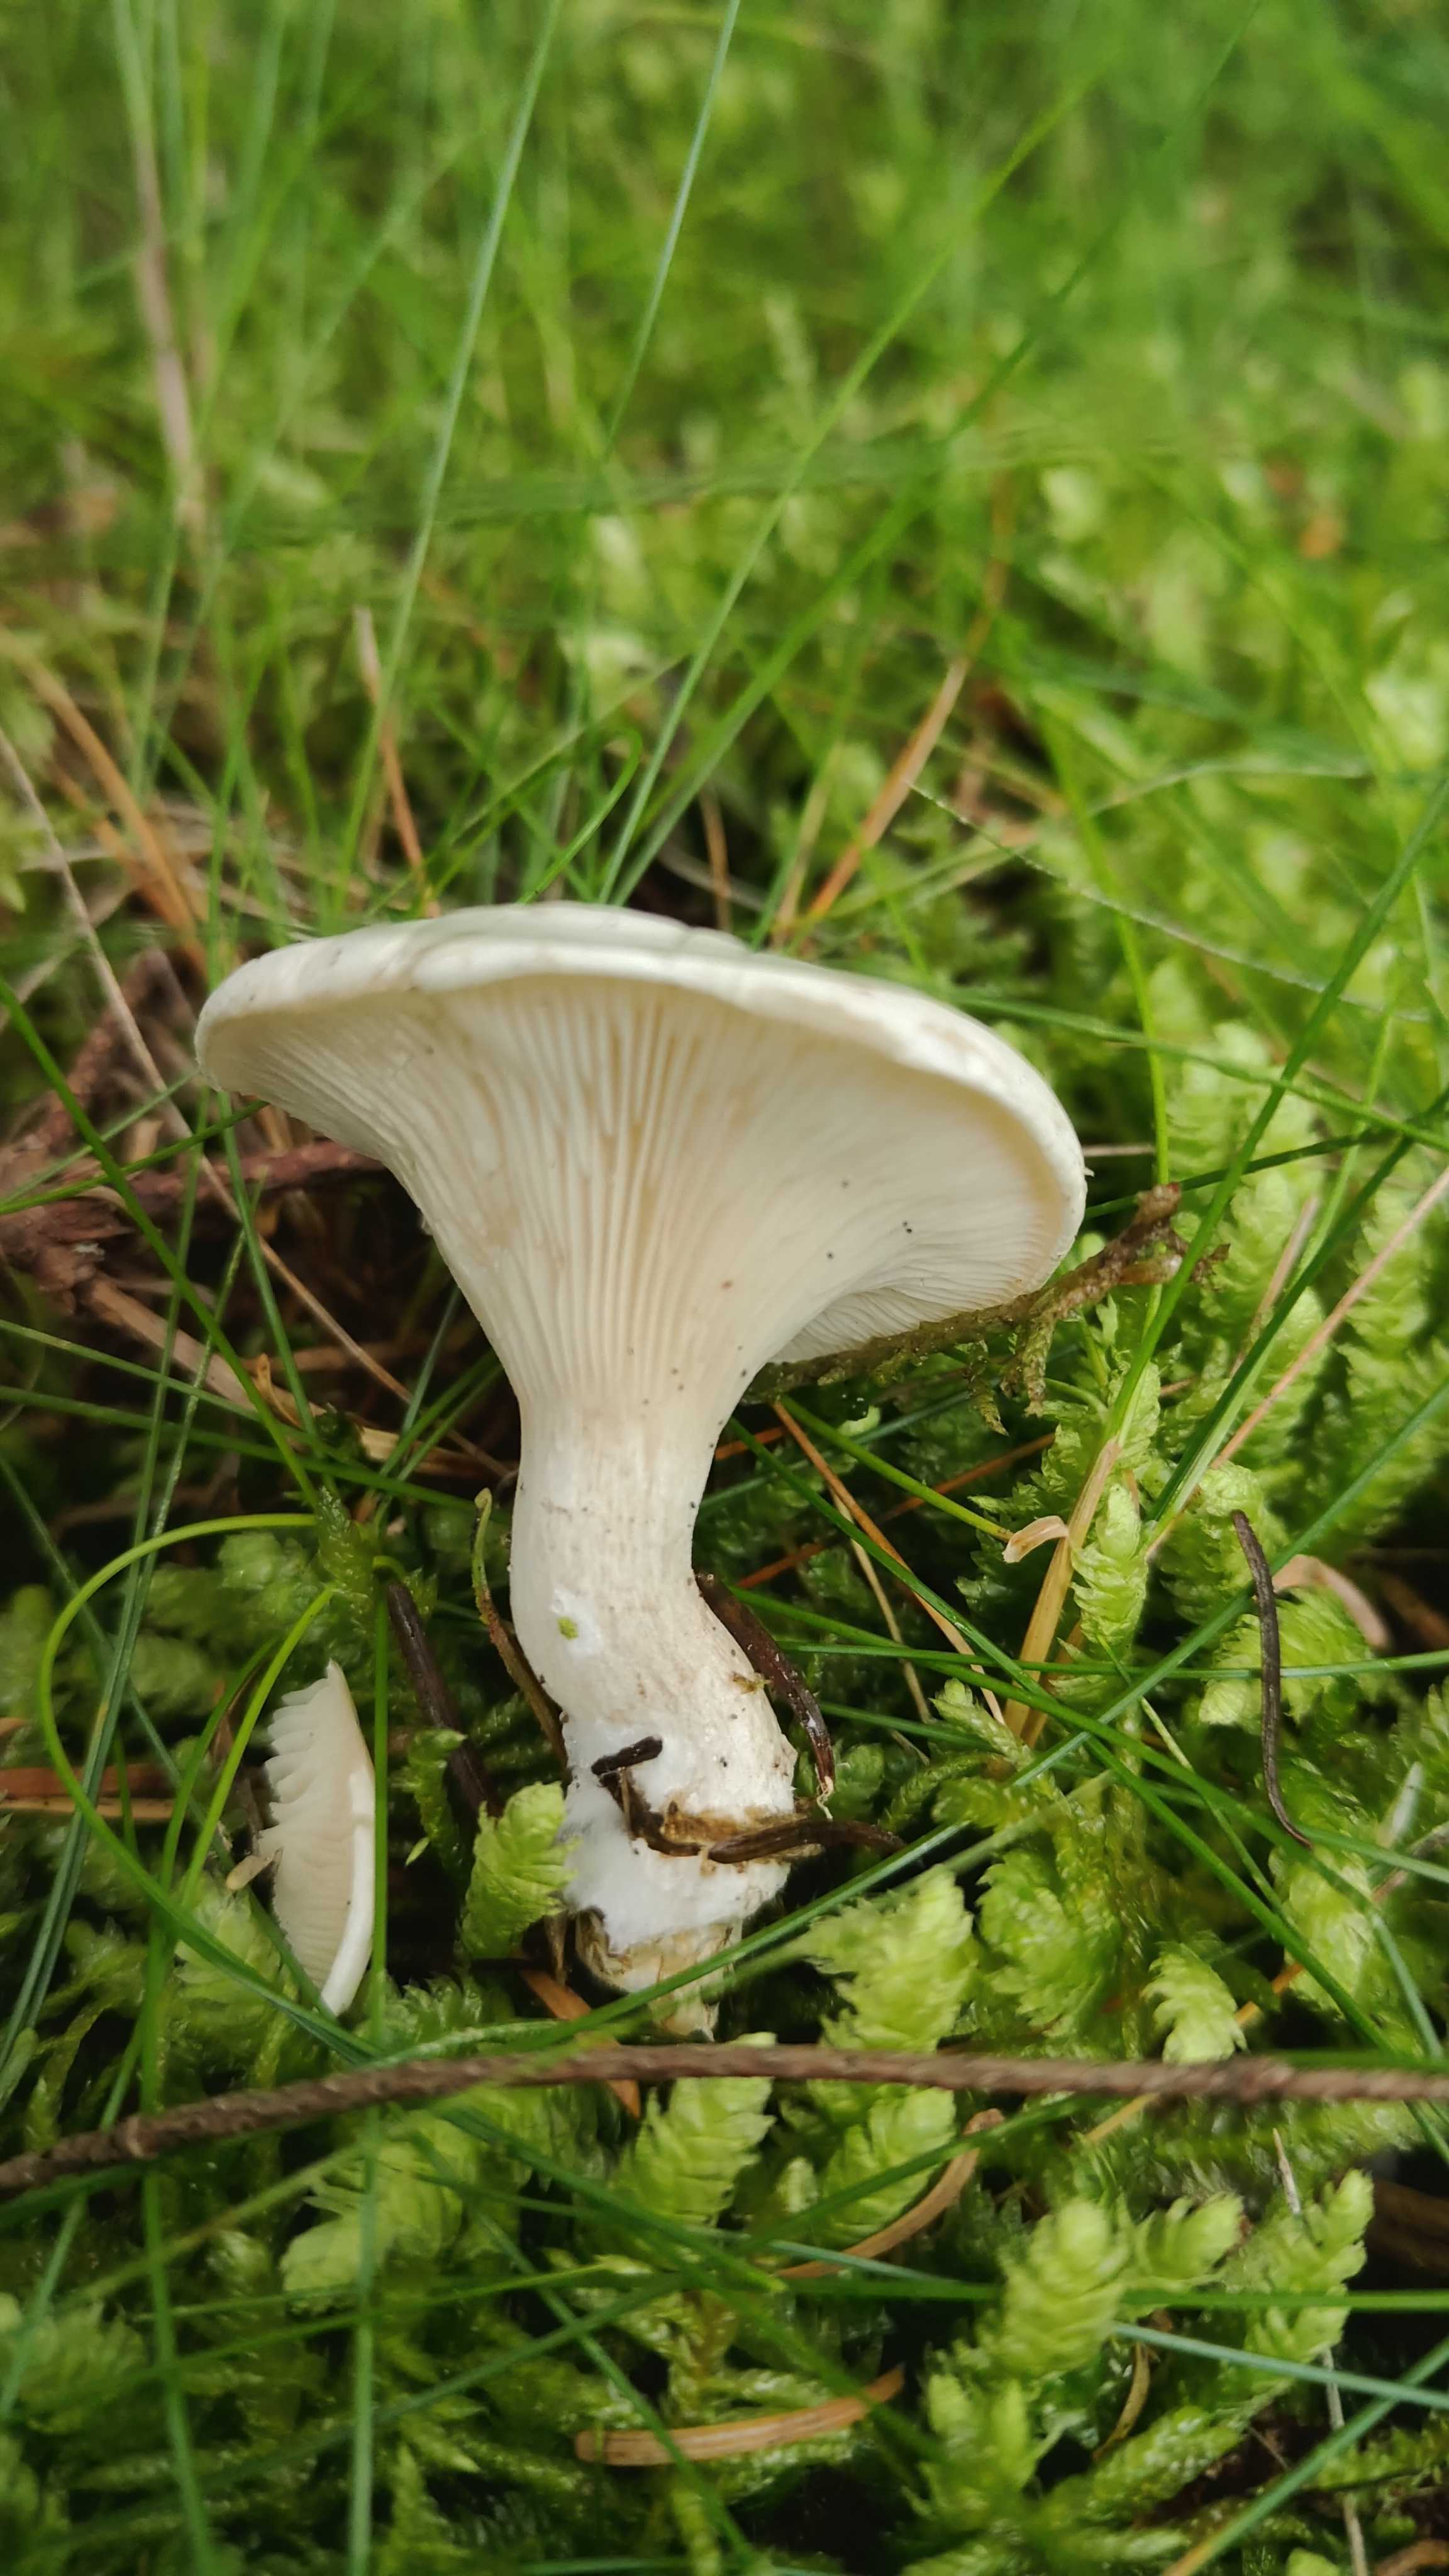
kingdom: Fungi
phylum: Basidiomycota
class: Agaricomycetes
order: Agaricales
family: Entolomataceae
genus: Clitopilus
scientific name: Clitopilus prunulus
